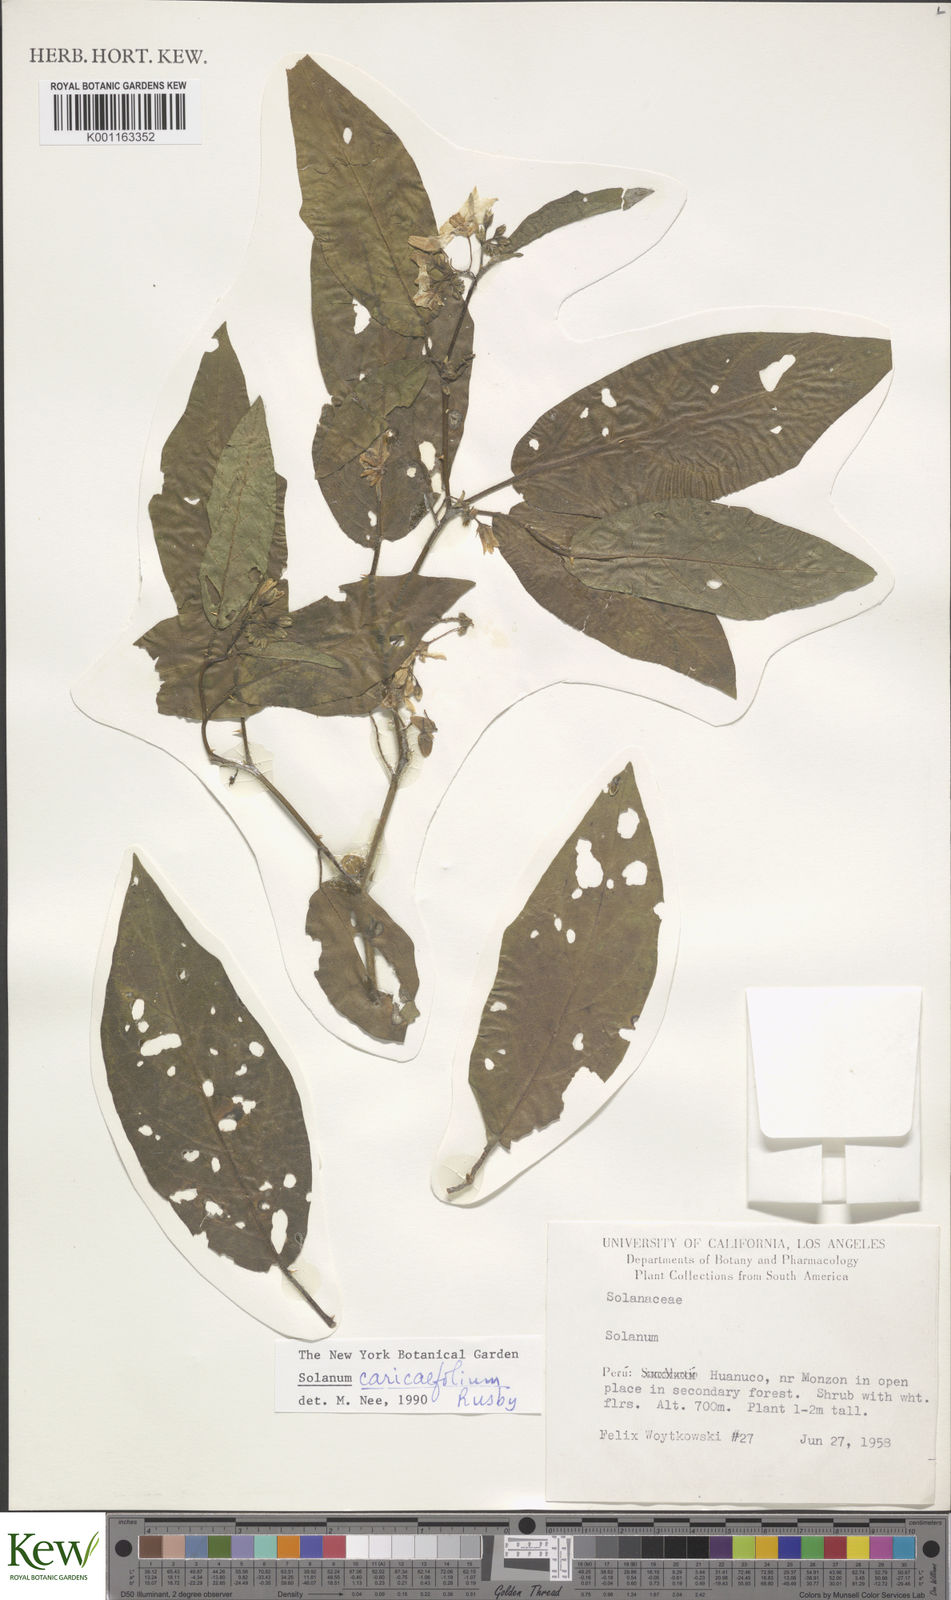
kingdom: Plantae
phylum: Tracheophyta
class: Magnoliopsida
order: Solanales
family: Solanaceae
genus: Solanum
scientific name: Solanum caricaefolium
